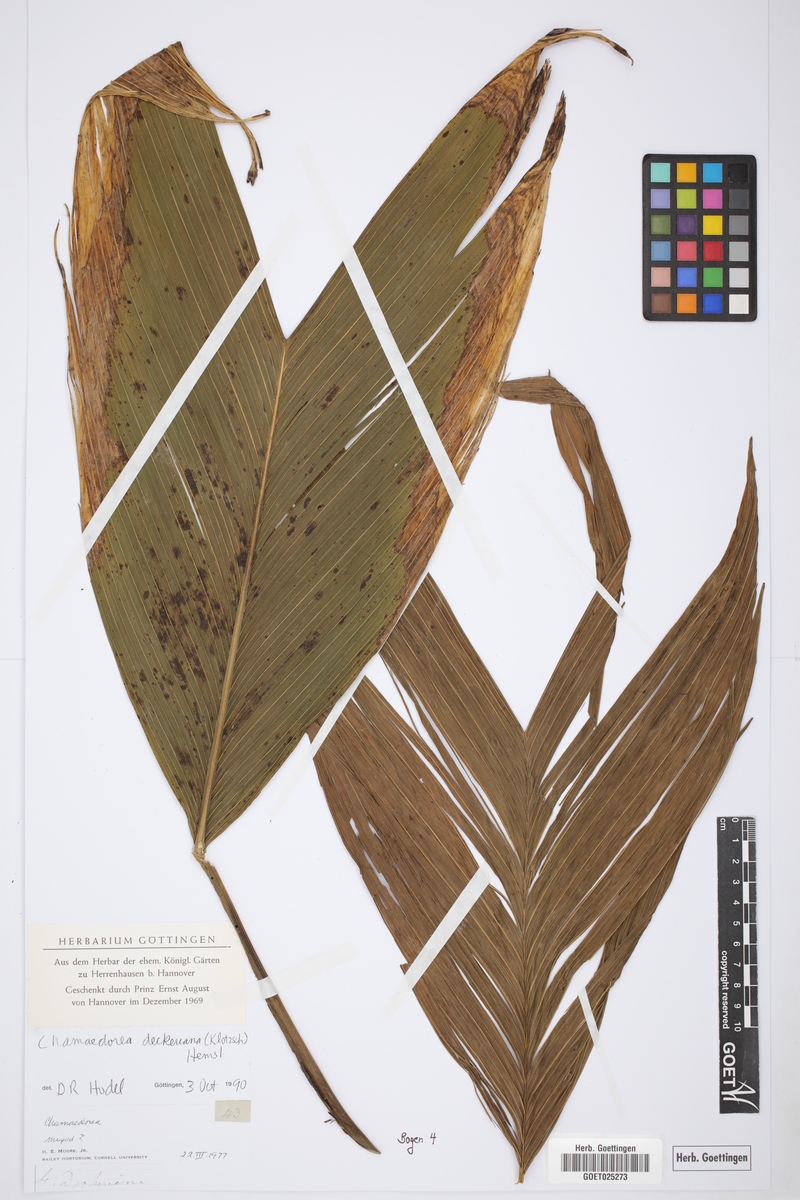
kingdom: Plantae
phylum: Tracheophyta
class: Liliopsida
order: Arecales
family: Arecaceae
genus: Chamaedorea
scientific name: Chamaedorea deckeriana
